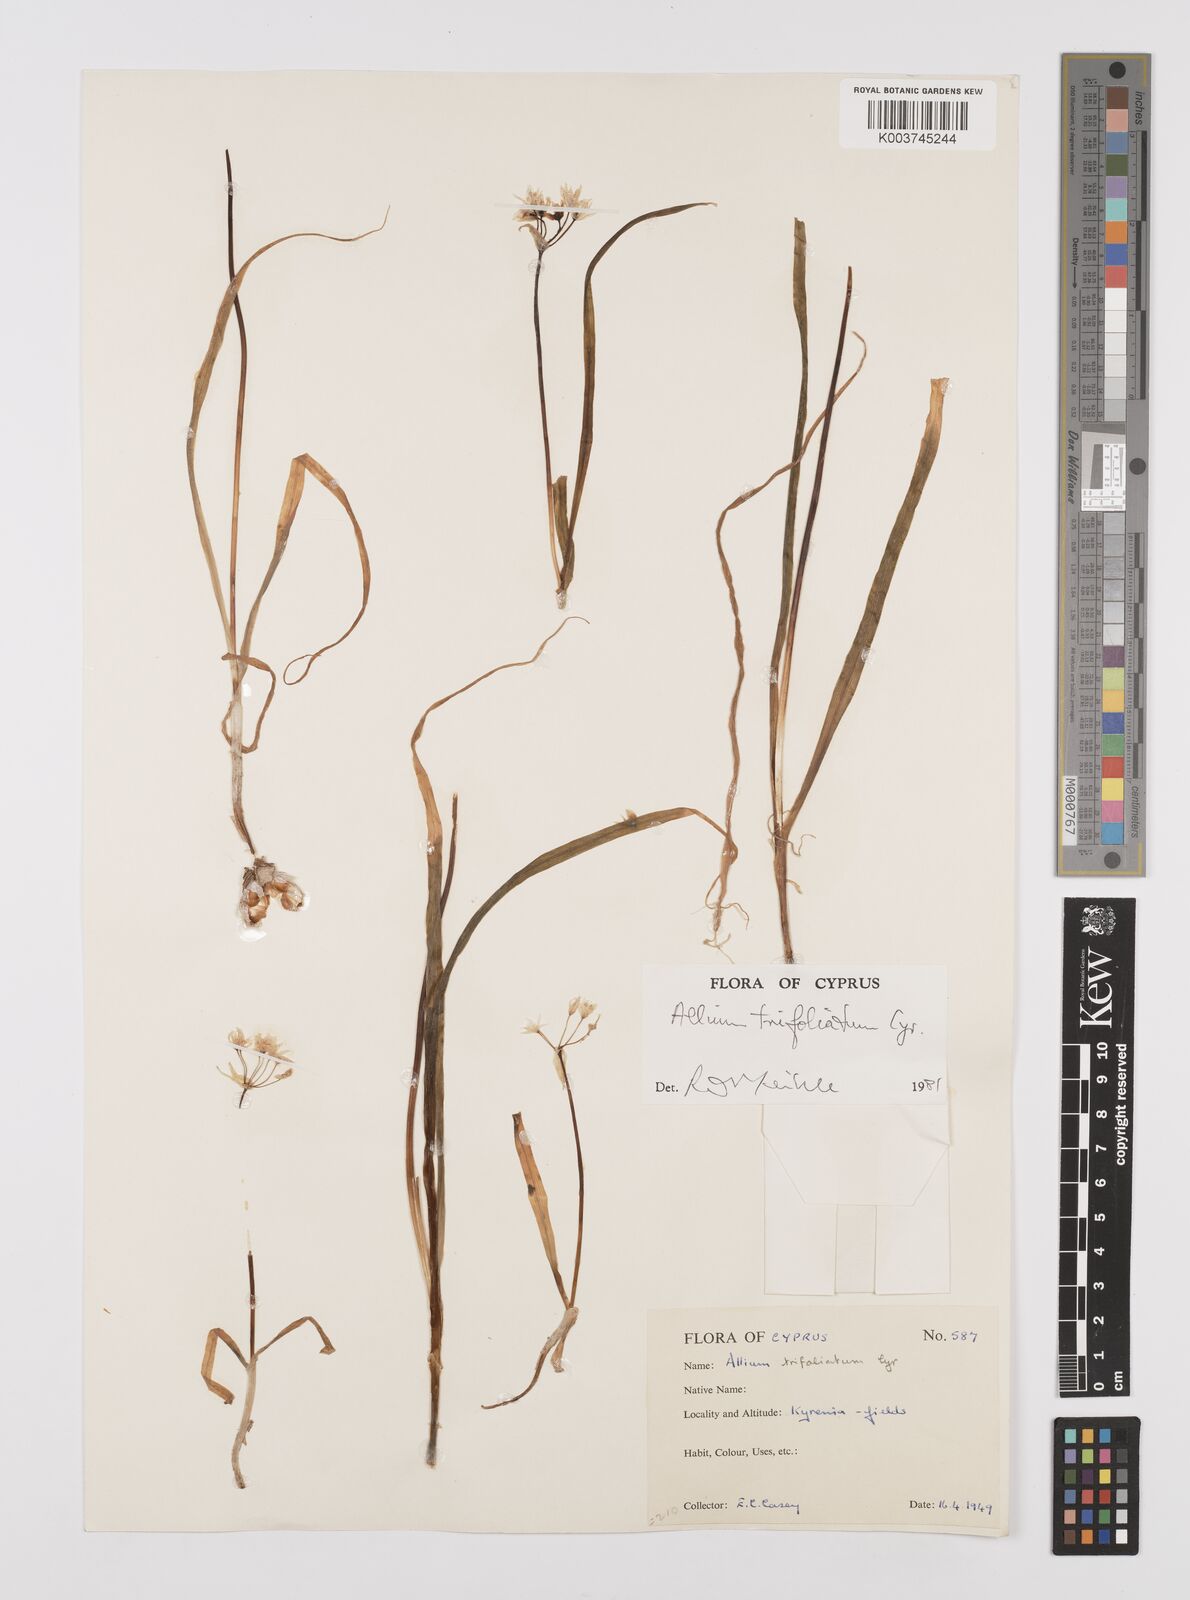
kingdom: Plantae
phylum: Tracheophyta
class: Liliopsida
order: Asparagales
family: Amaryllidaceae
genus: Allium
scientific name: Allium trifoliatum
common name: Pink garlic
